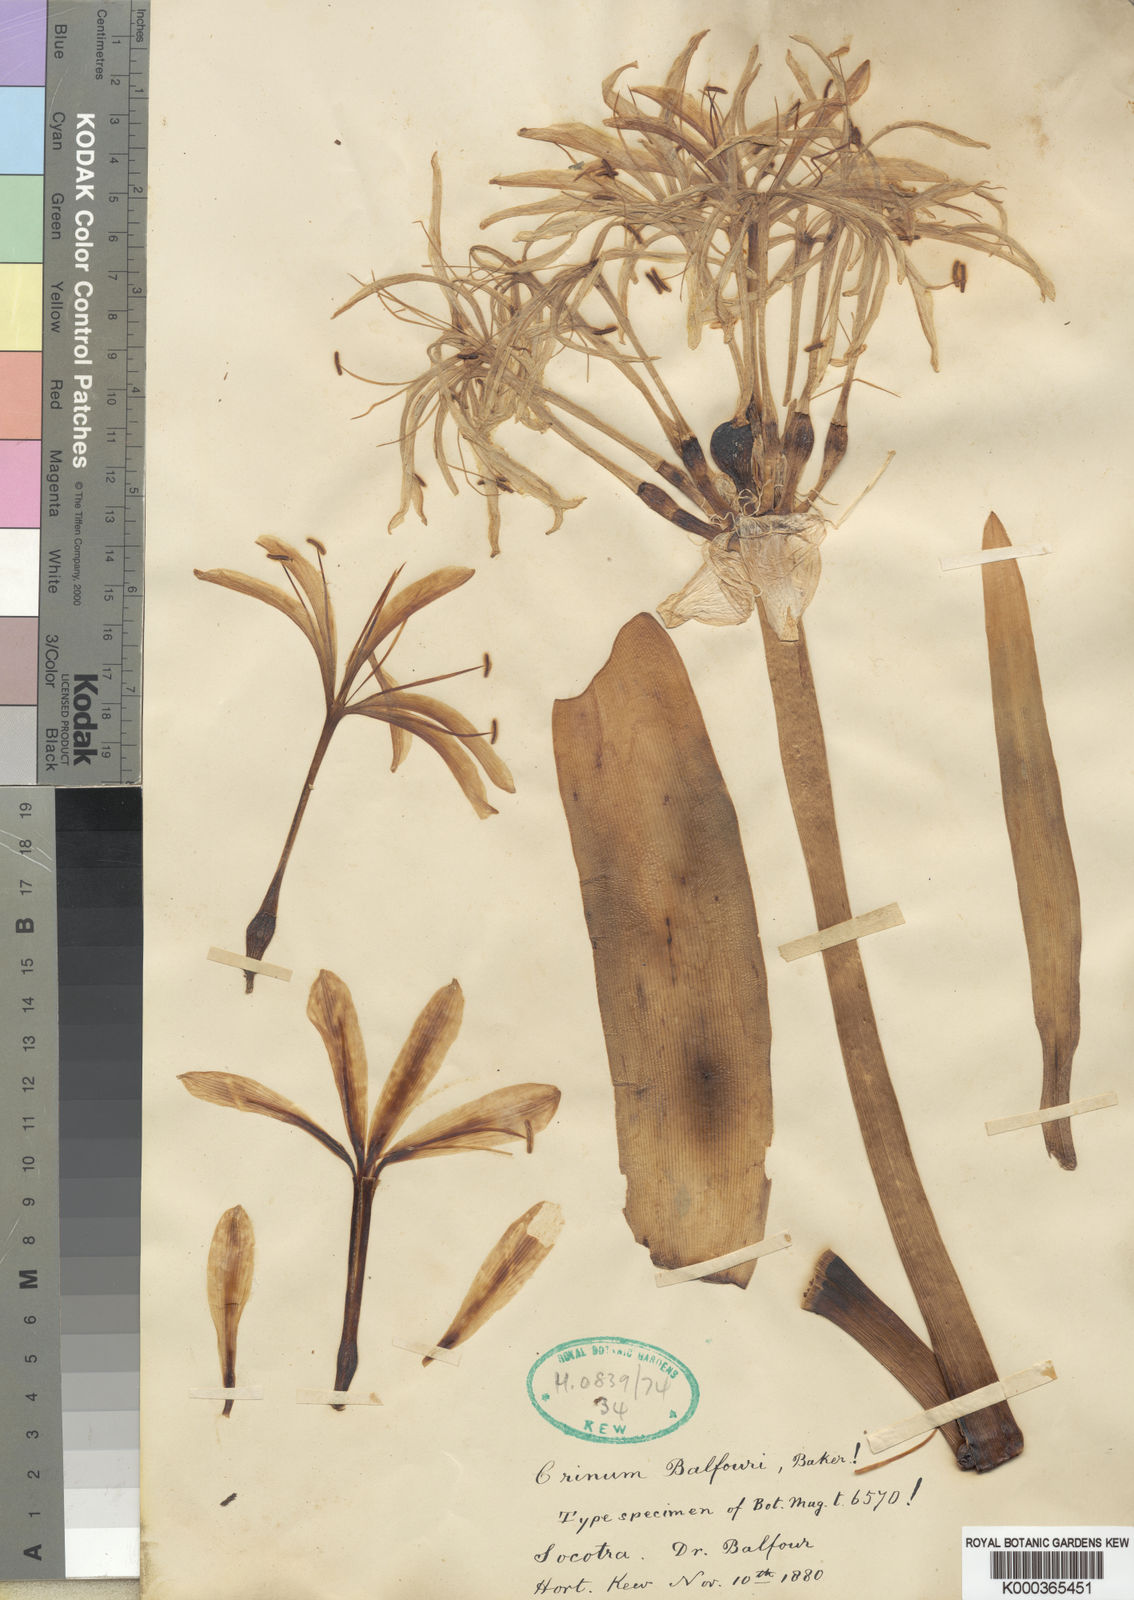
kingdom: Plantae
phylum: Tracheophyta
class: Liliopsida
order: Asparagales
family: Amaryllidaceae
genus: Crinum
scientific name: Crinum
